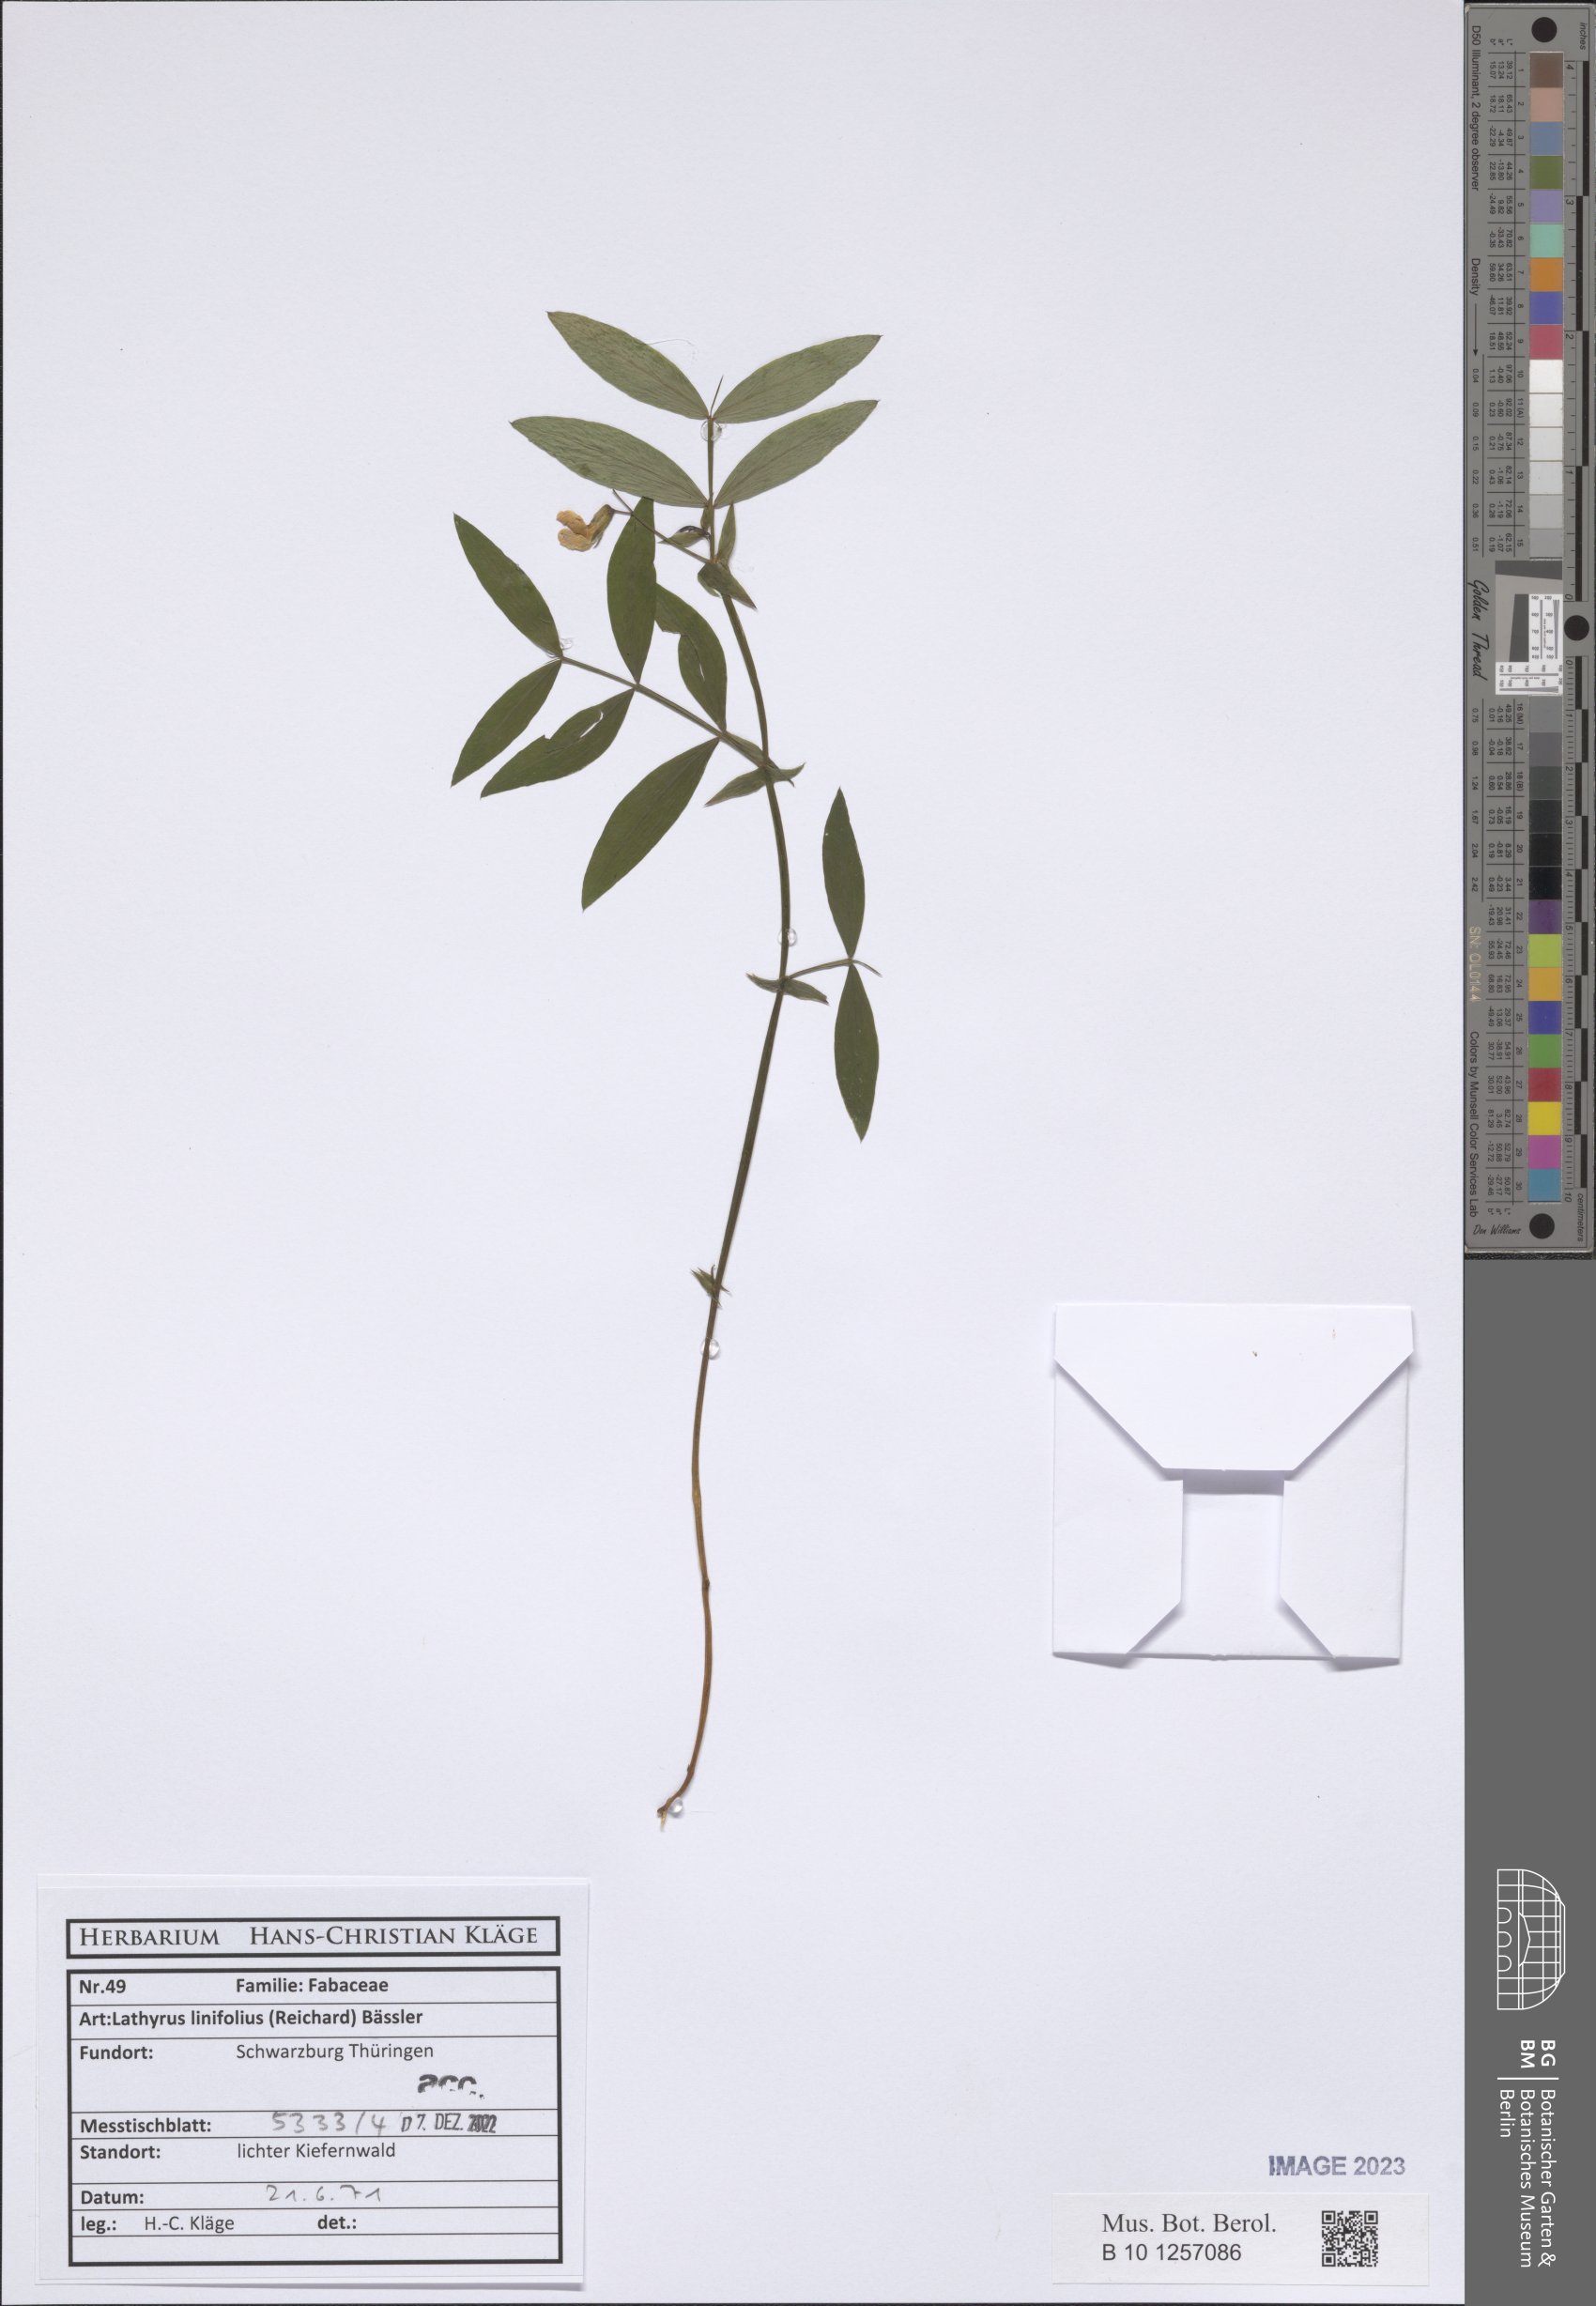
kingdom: Plantae
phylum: Tracheophyta
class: Magnoliopsida
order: Fabales
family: Fabaceae
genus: Lathyrus
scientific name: Lathyrus linifolius
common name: Bitter-vetch
